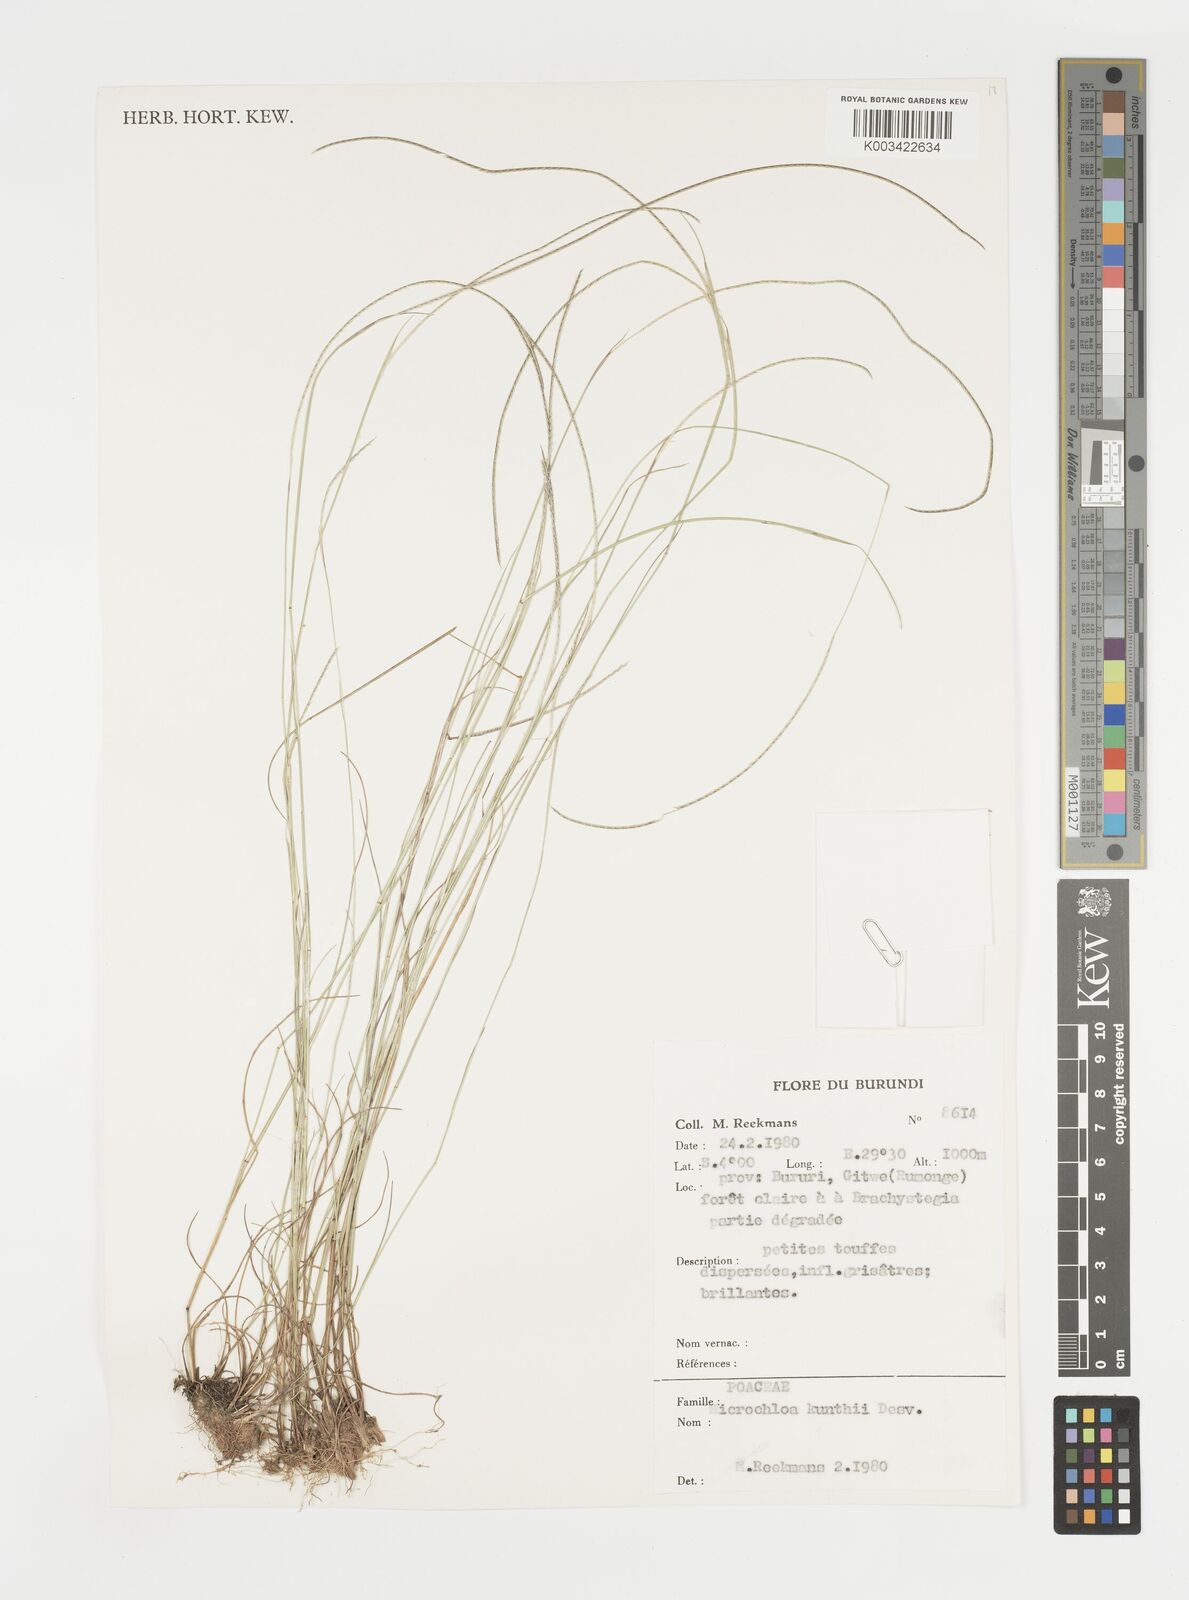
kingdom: Plantae
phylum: Tracheophyta
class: Liliopsida
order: Poales
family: Poaceae
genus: Microchloa
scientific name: Microchloa kunthii
